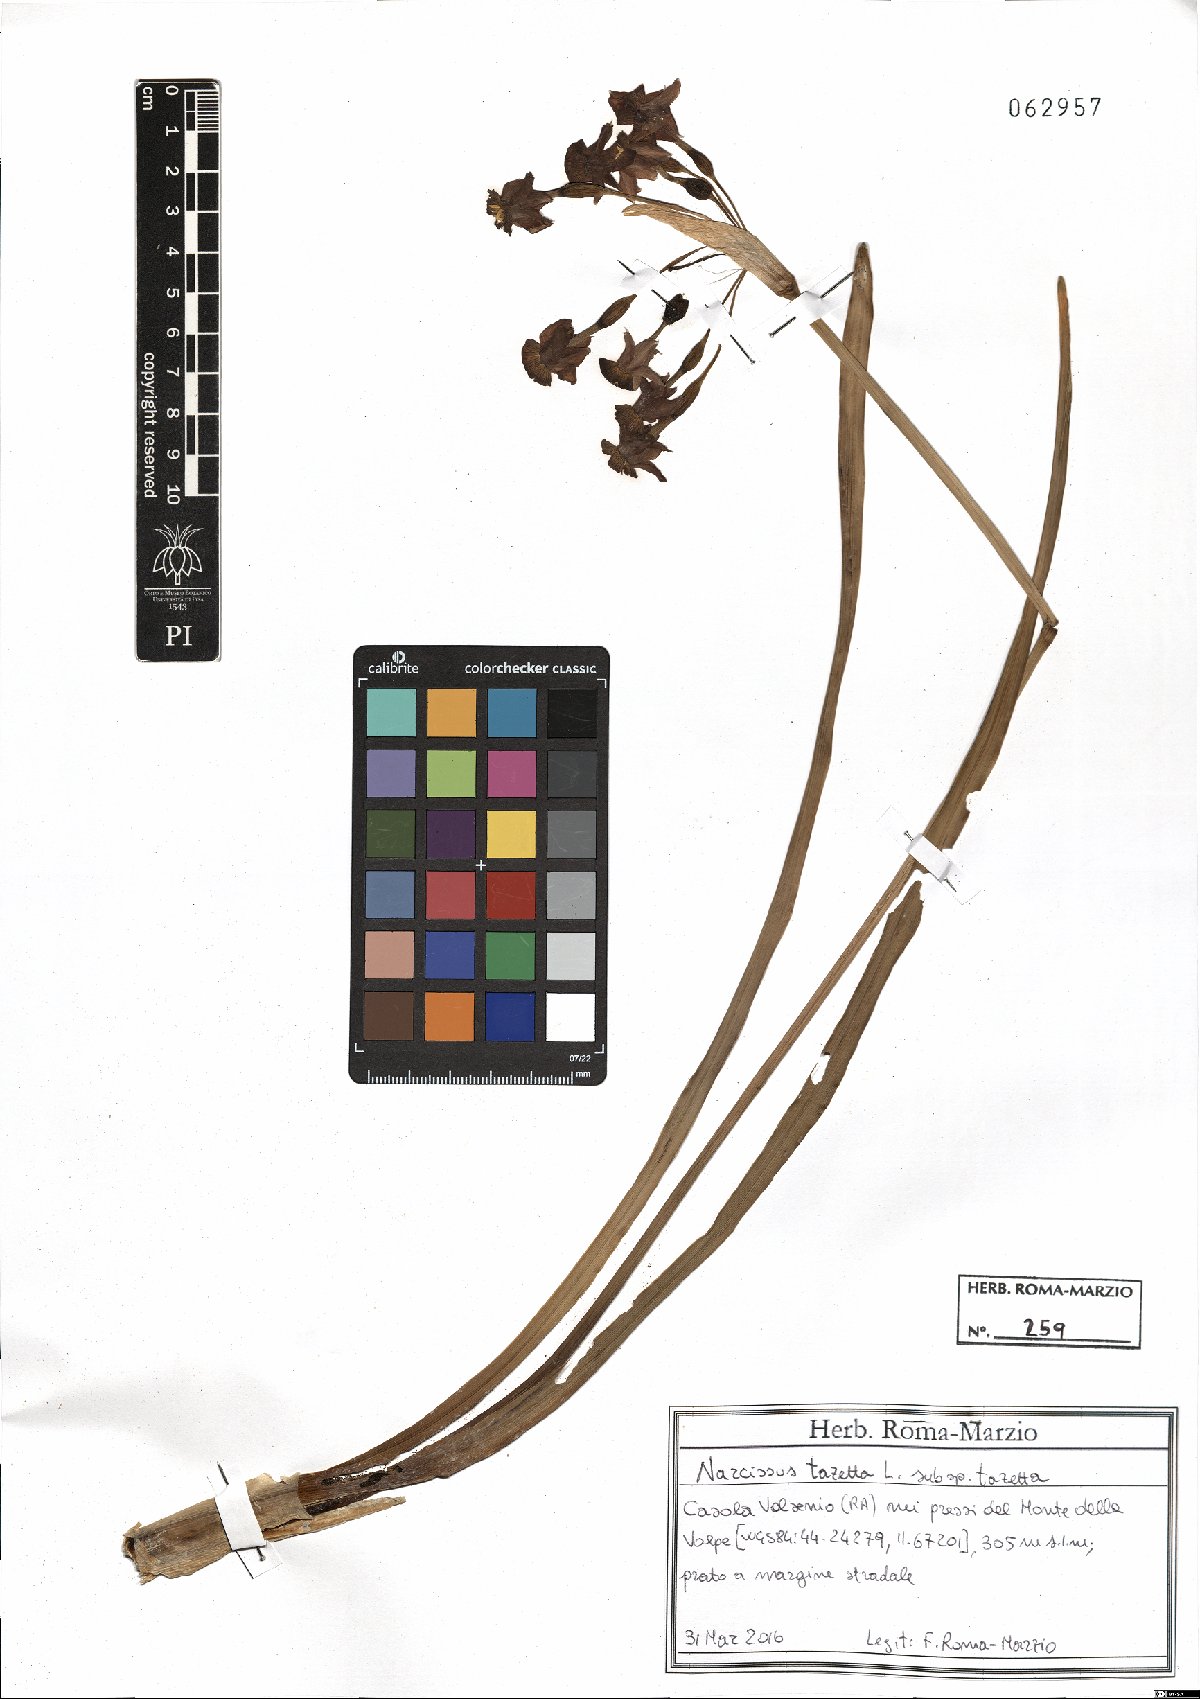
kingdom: Plantae
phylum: Tracheophyta
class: Liliopsida
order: Asparagales
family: Amaryllidaceae
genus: Narcissus
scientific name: Narcissus tazetta
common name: Bunch-flowered daffodil
